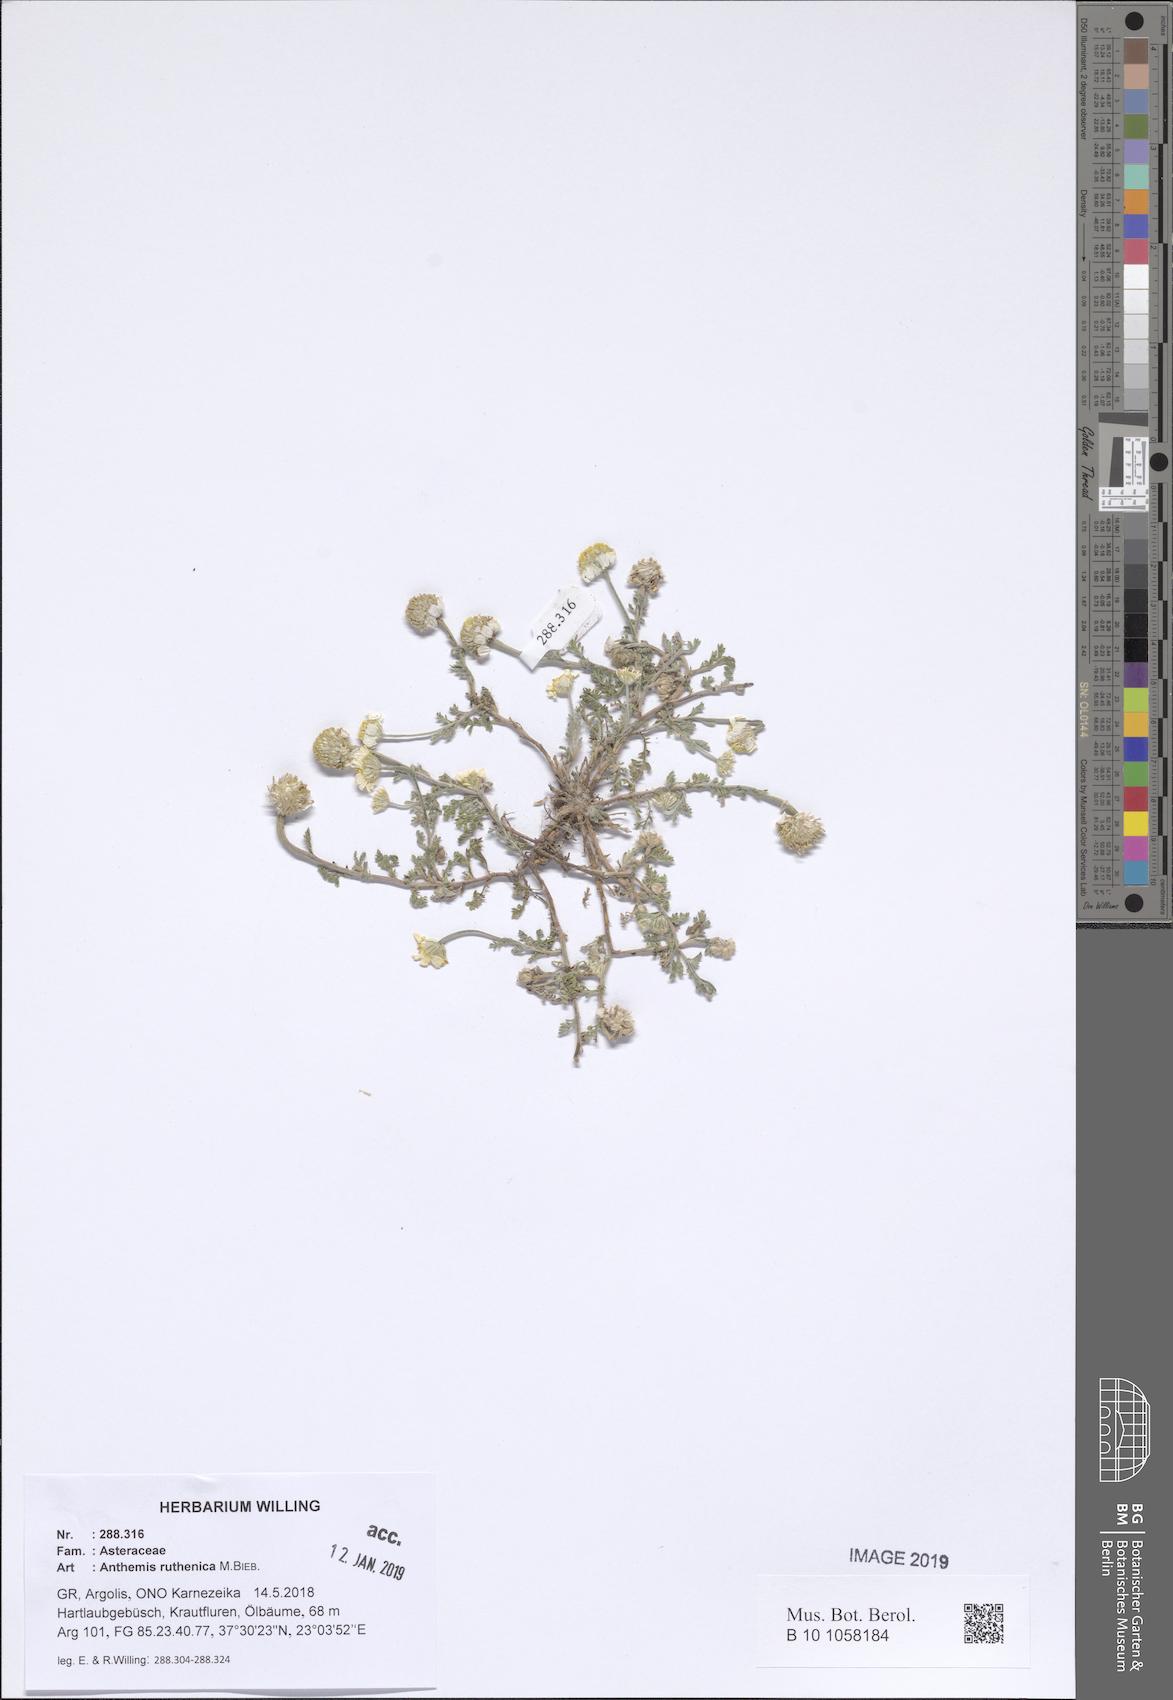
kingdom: Plantae
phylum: Tracheophyta
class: Magnoliopsida
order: Asterales
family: Asteraceae
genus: Anthemis
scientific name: Anthemis ruthenica
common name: Eastern chamomile
